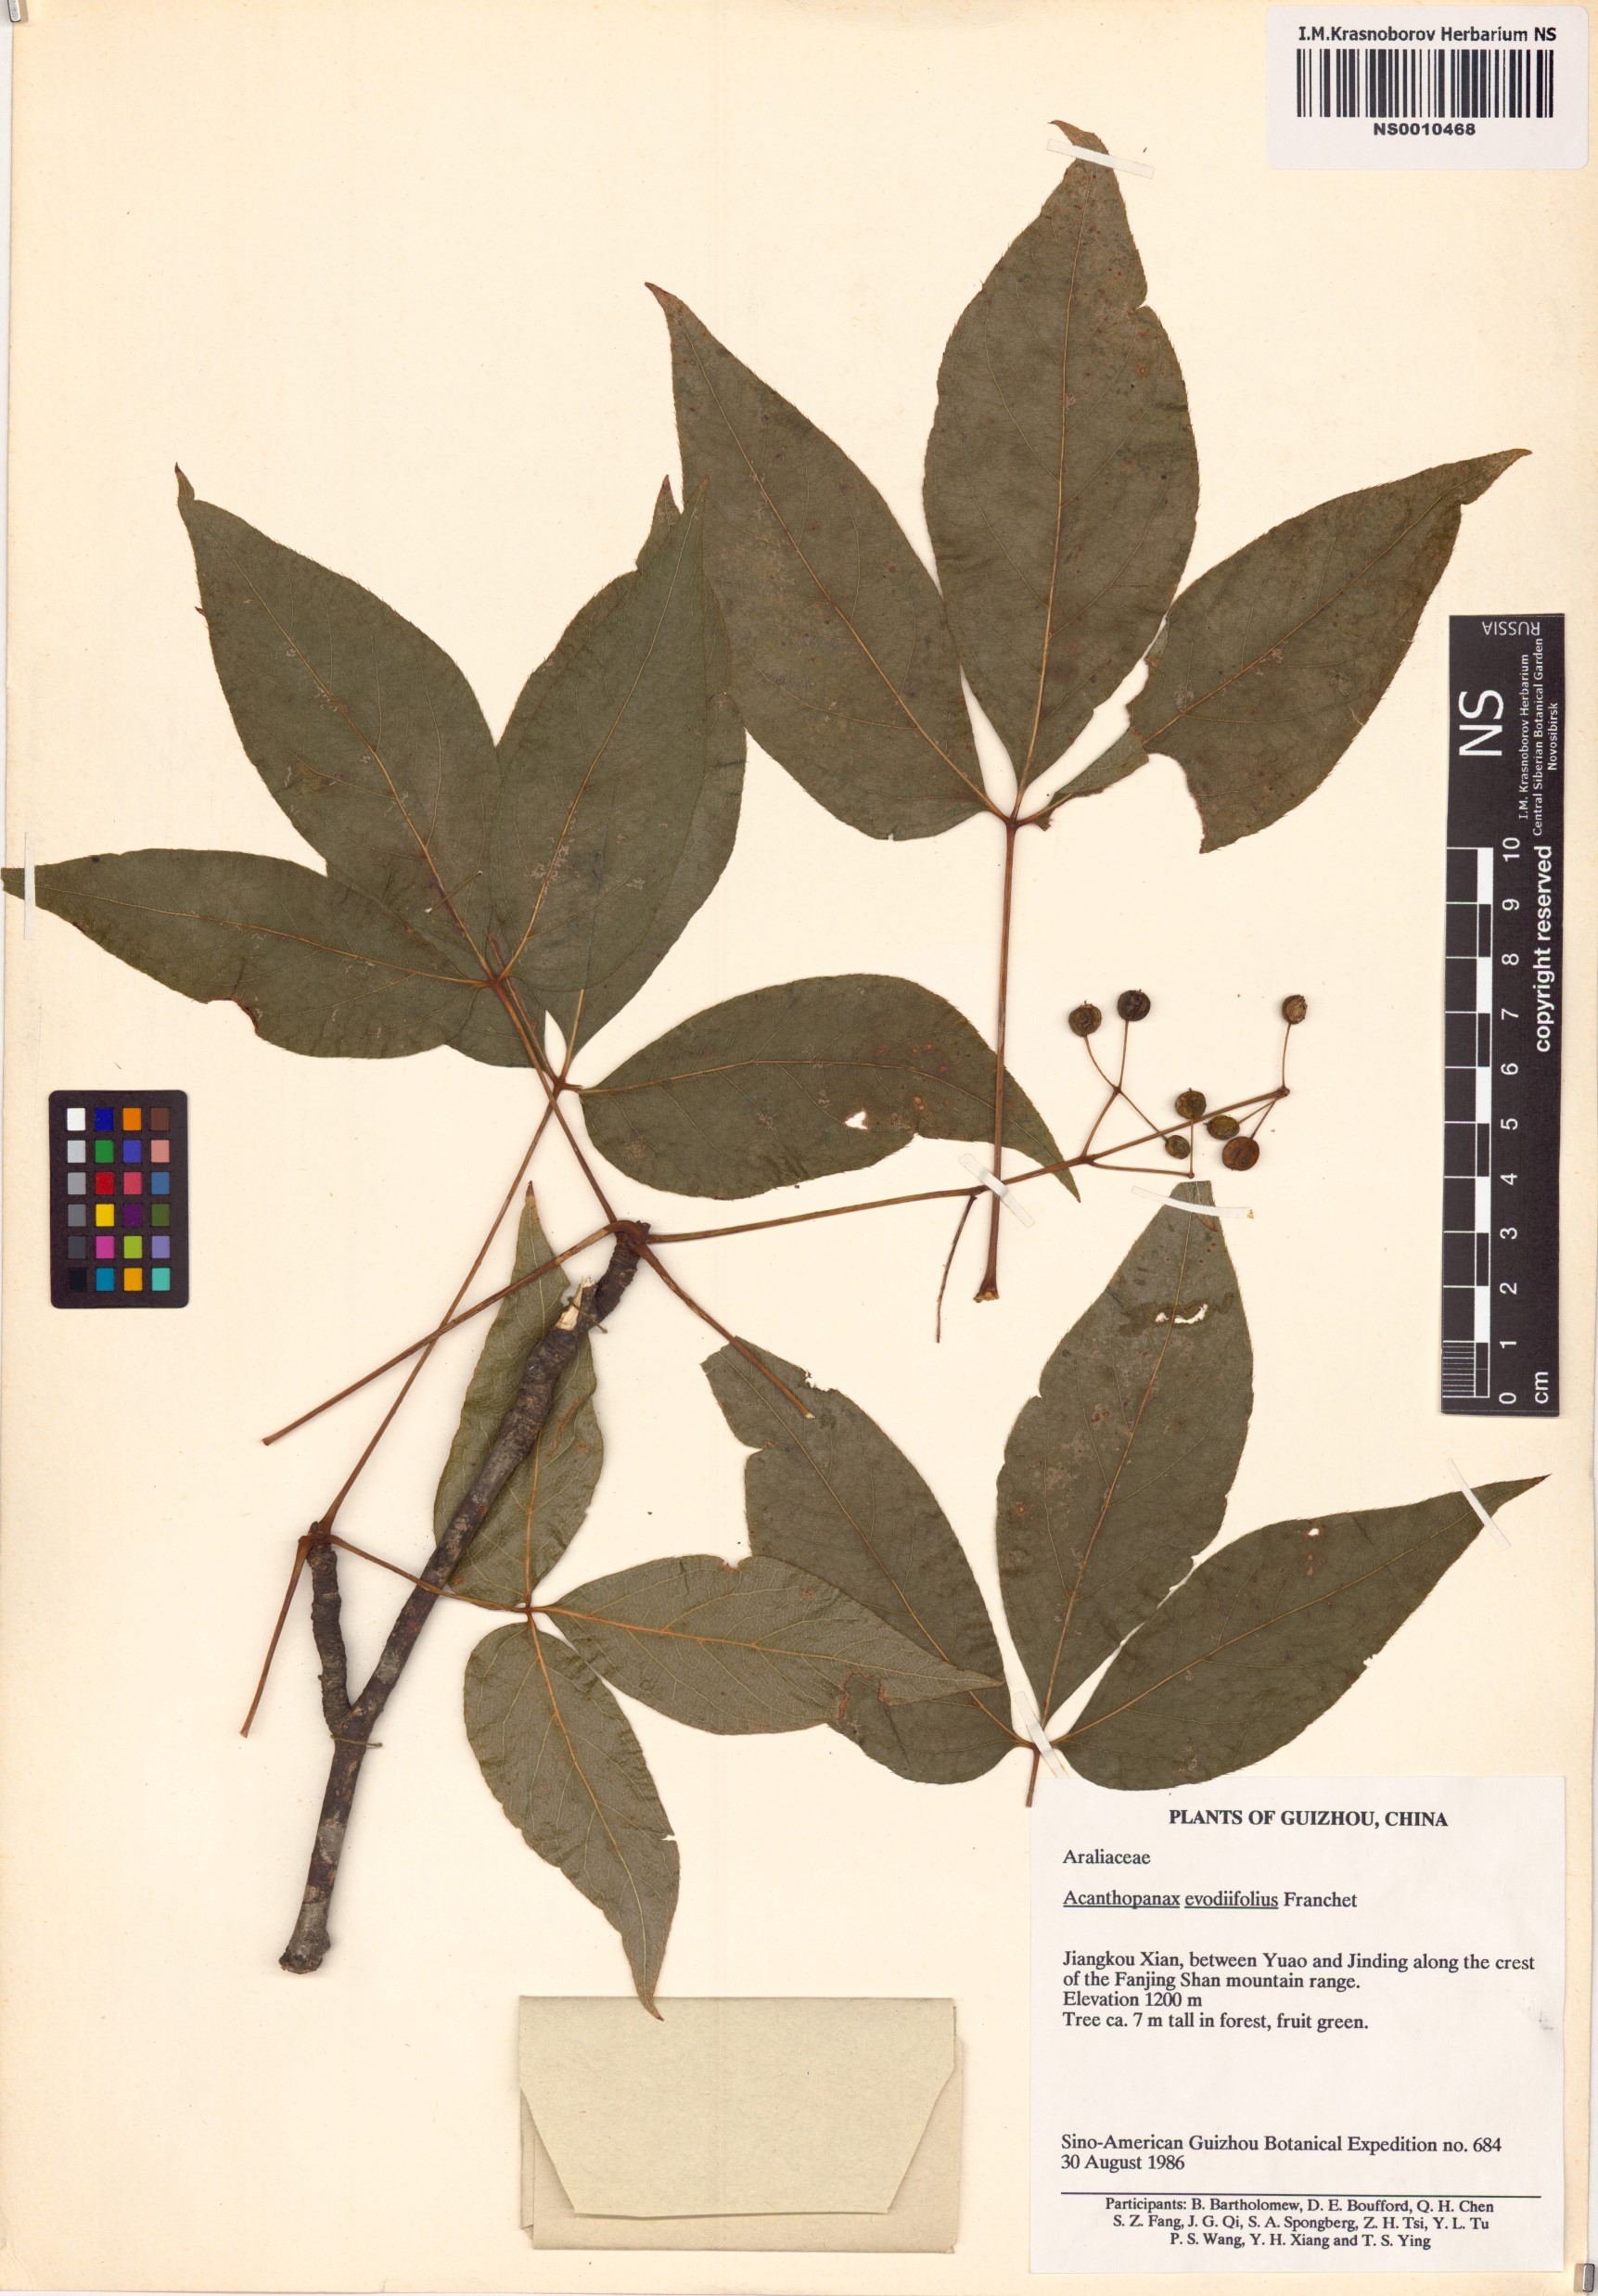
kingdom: Plantae
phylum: Tracheophyta
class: Magnoliopsida
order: Apiales
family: Araliaceae
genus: Gamblea
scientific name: Gamblea ciliata
